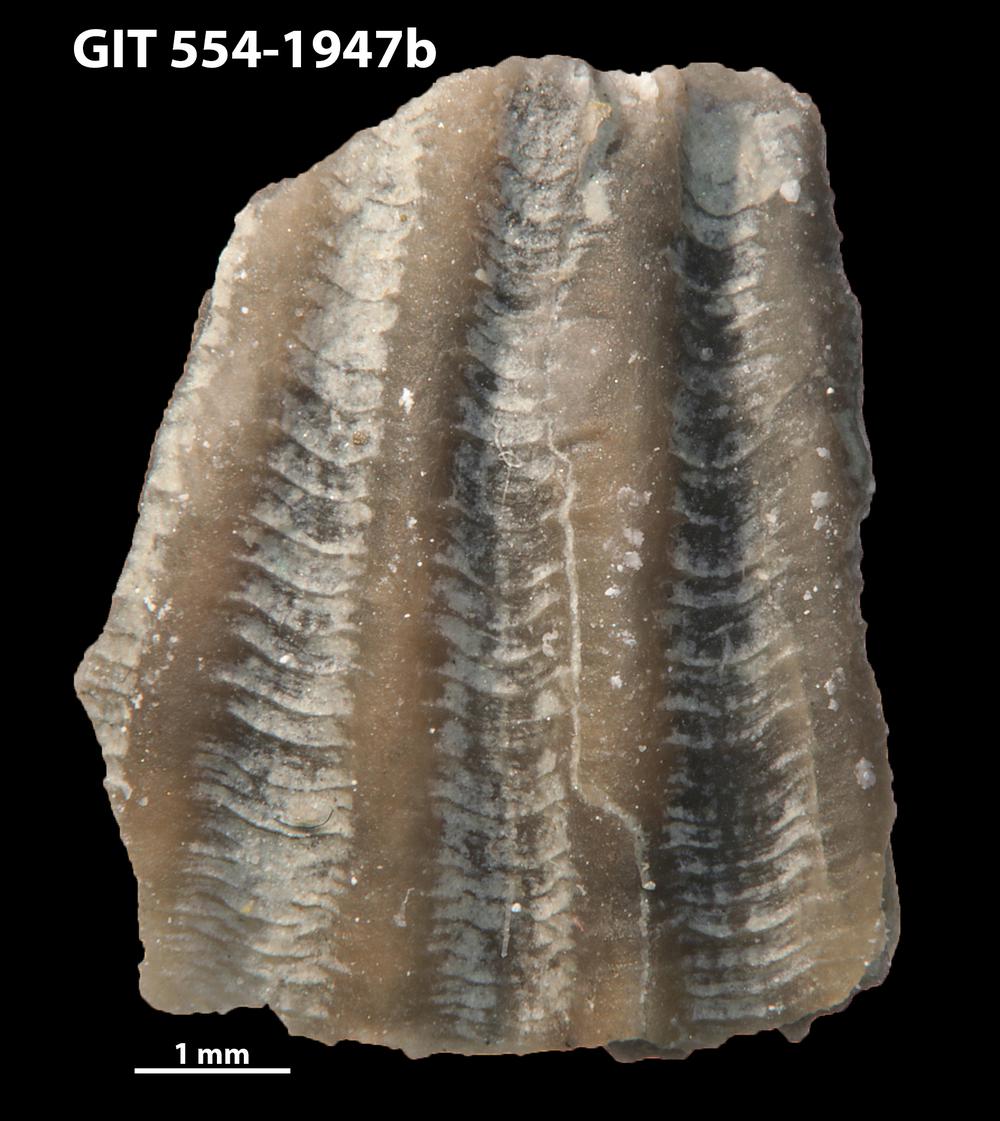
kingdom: Animalia
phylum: Brachiopoda
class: Rhynchonellata
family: Dolerorthidae
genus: Hesperorthis
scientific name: Hesperorthis hillistensis
